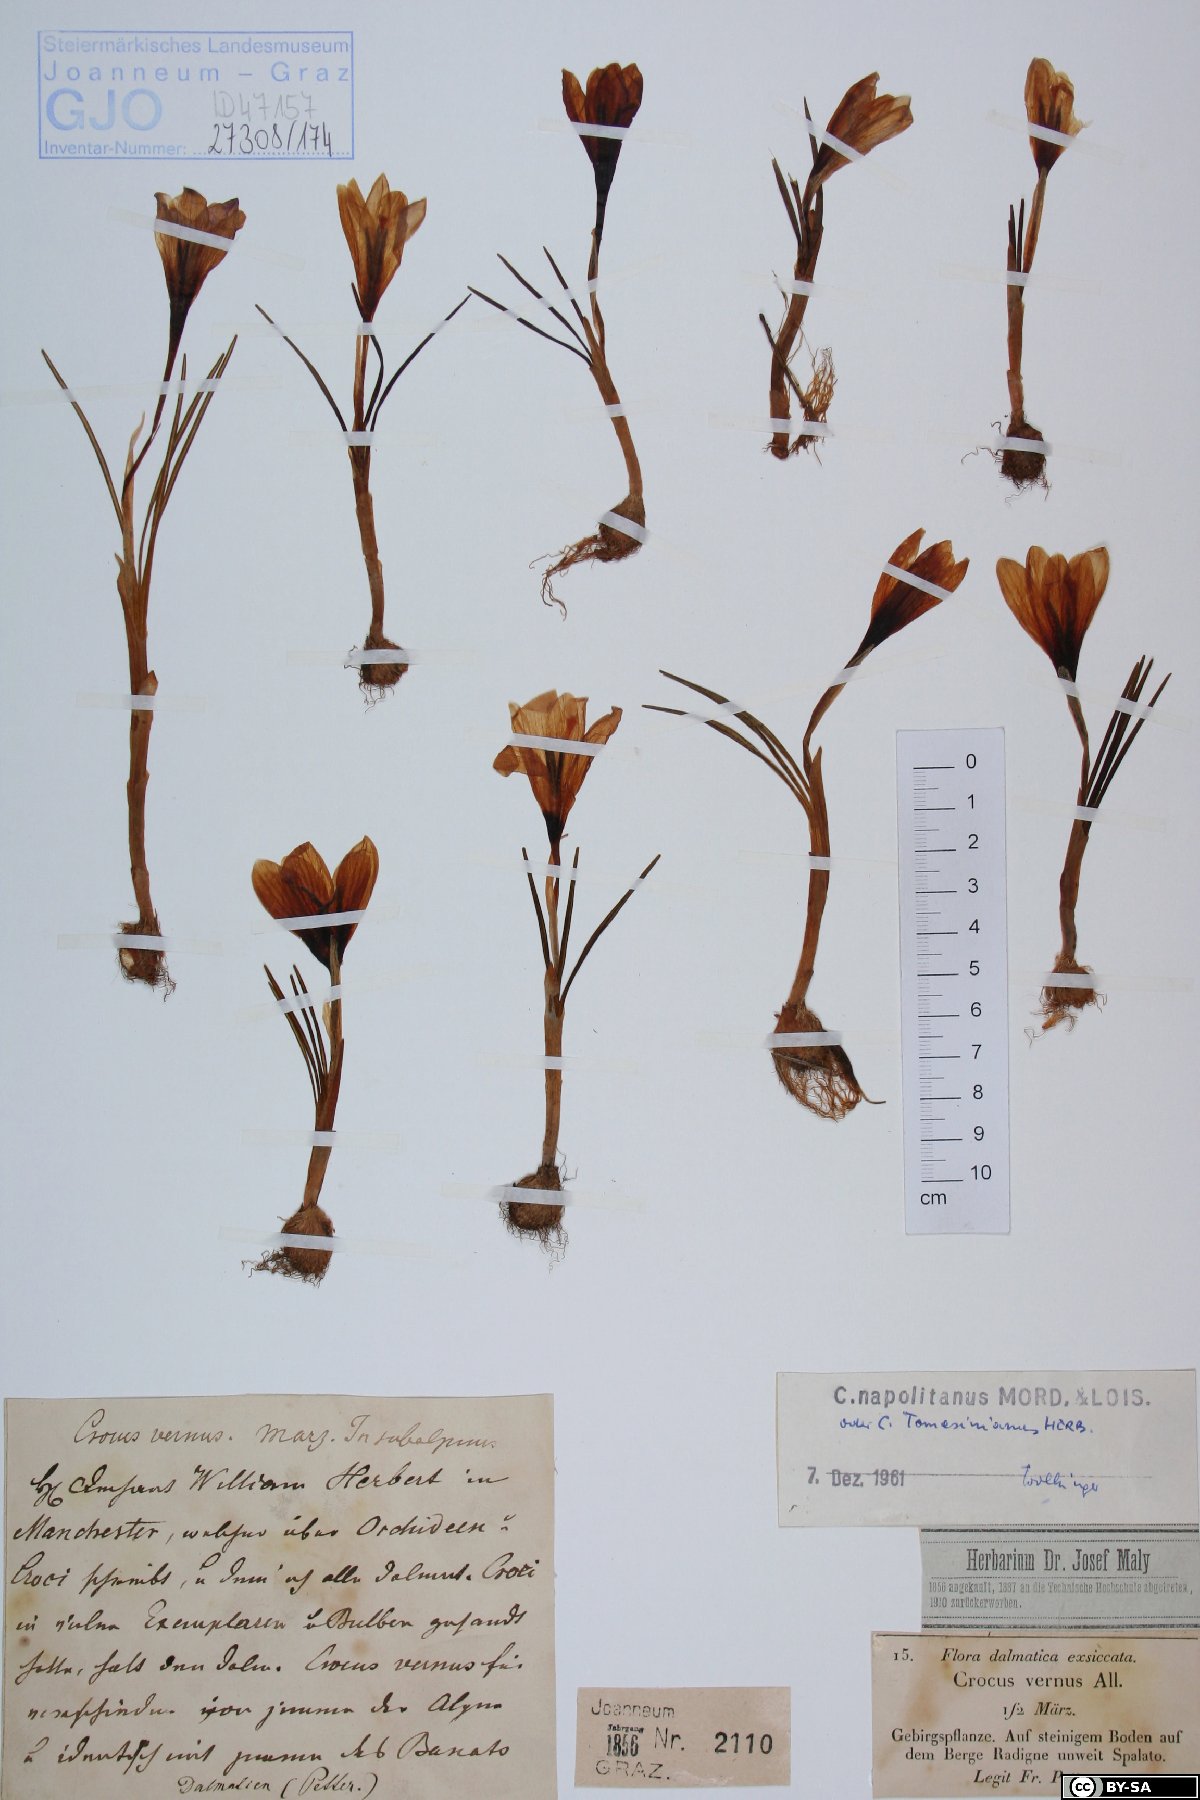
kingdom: Plantae
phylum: Tracheophyta
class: Liliopsida
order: Poales
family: Poaceae
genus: Deschampsia
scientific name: Deschampsia cespitosa
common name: Tufted hair-grass
